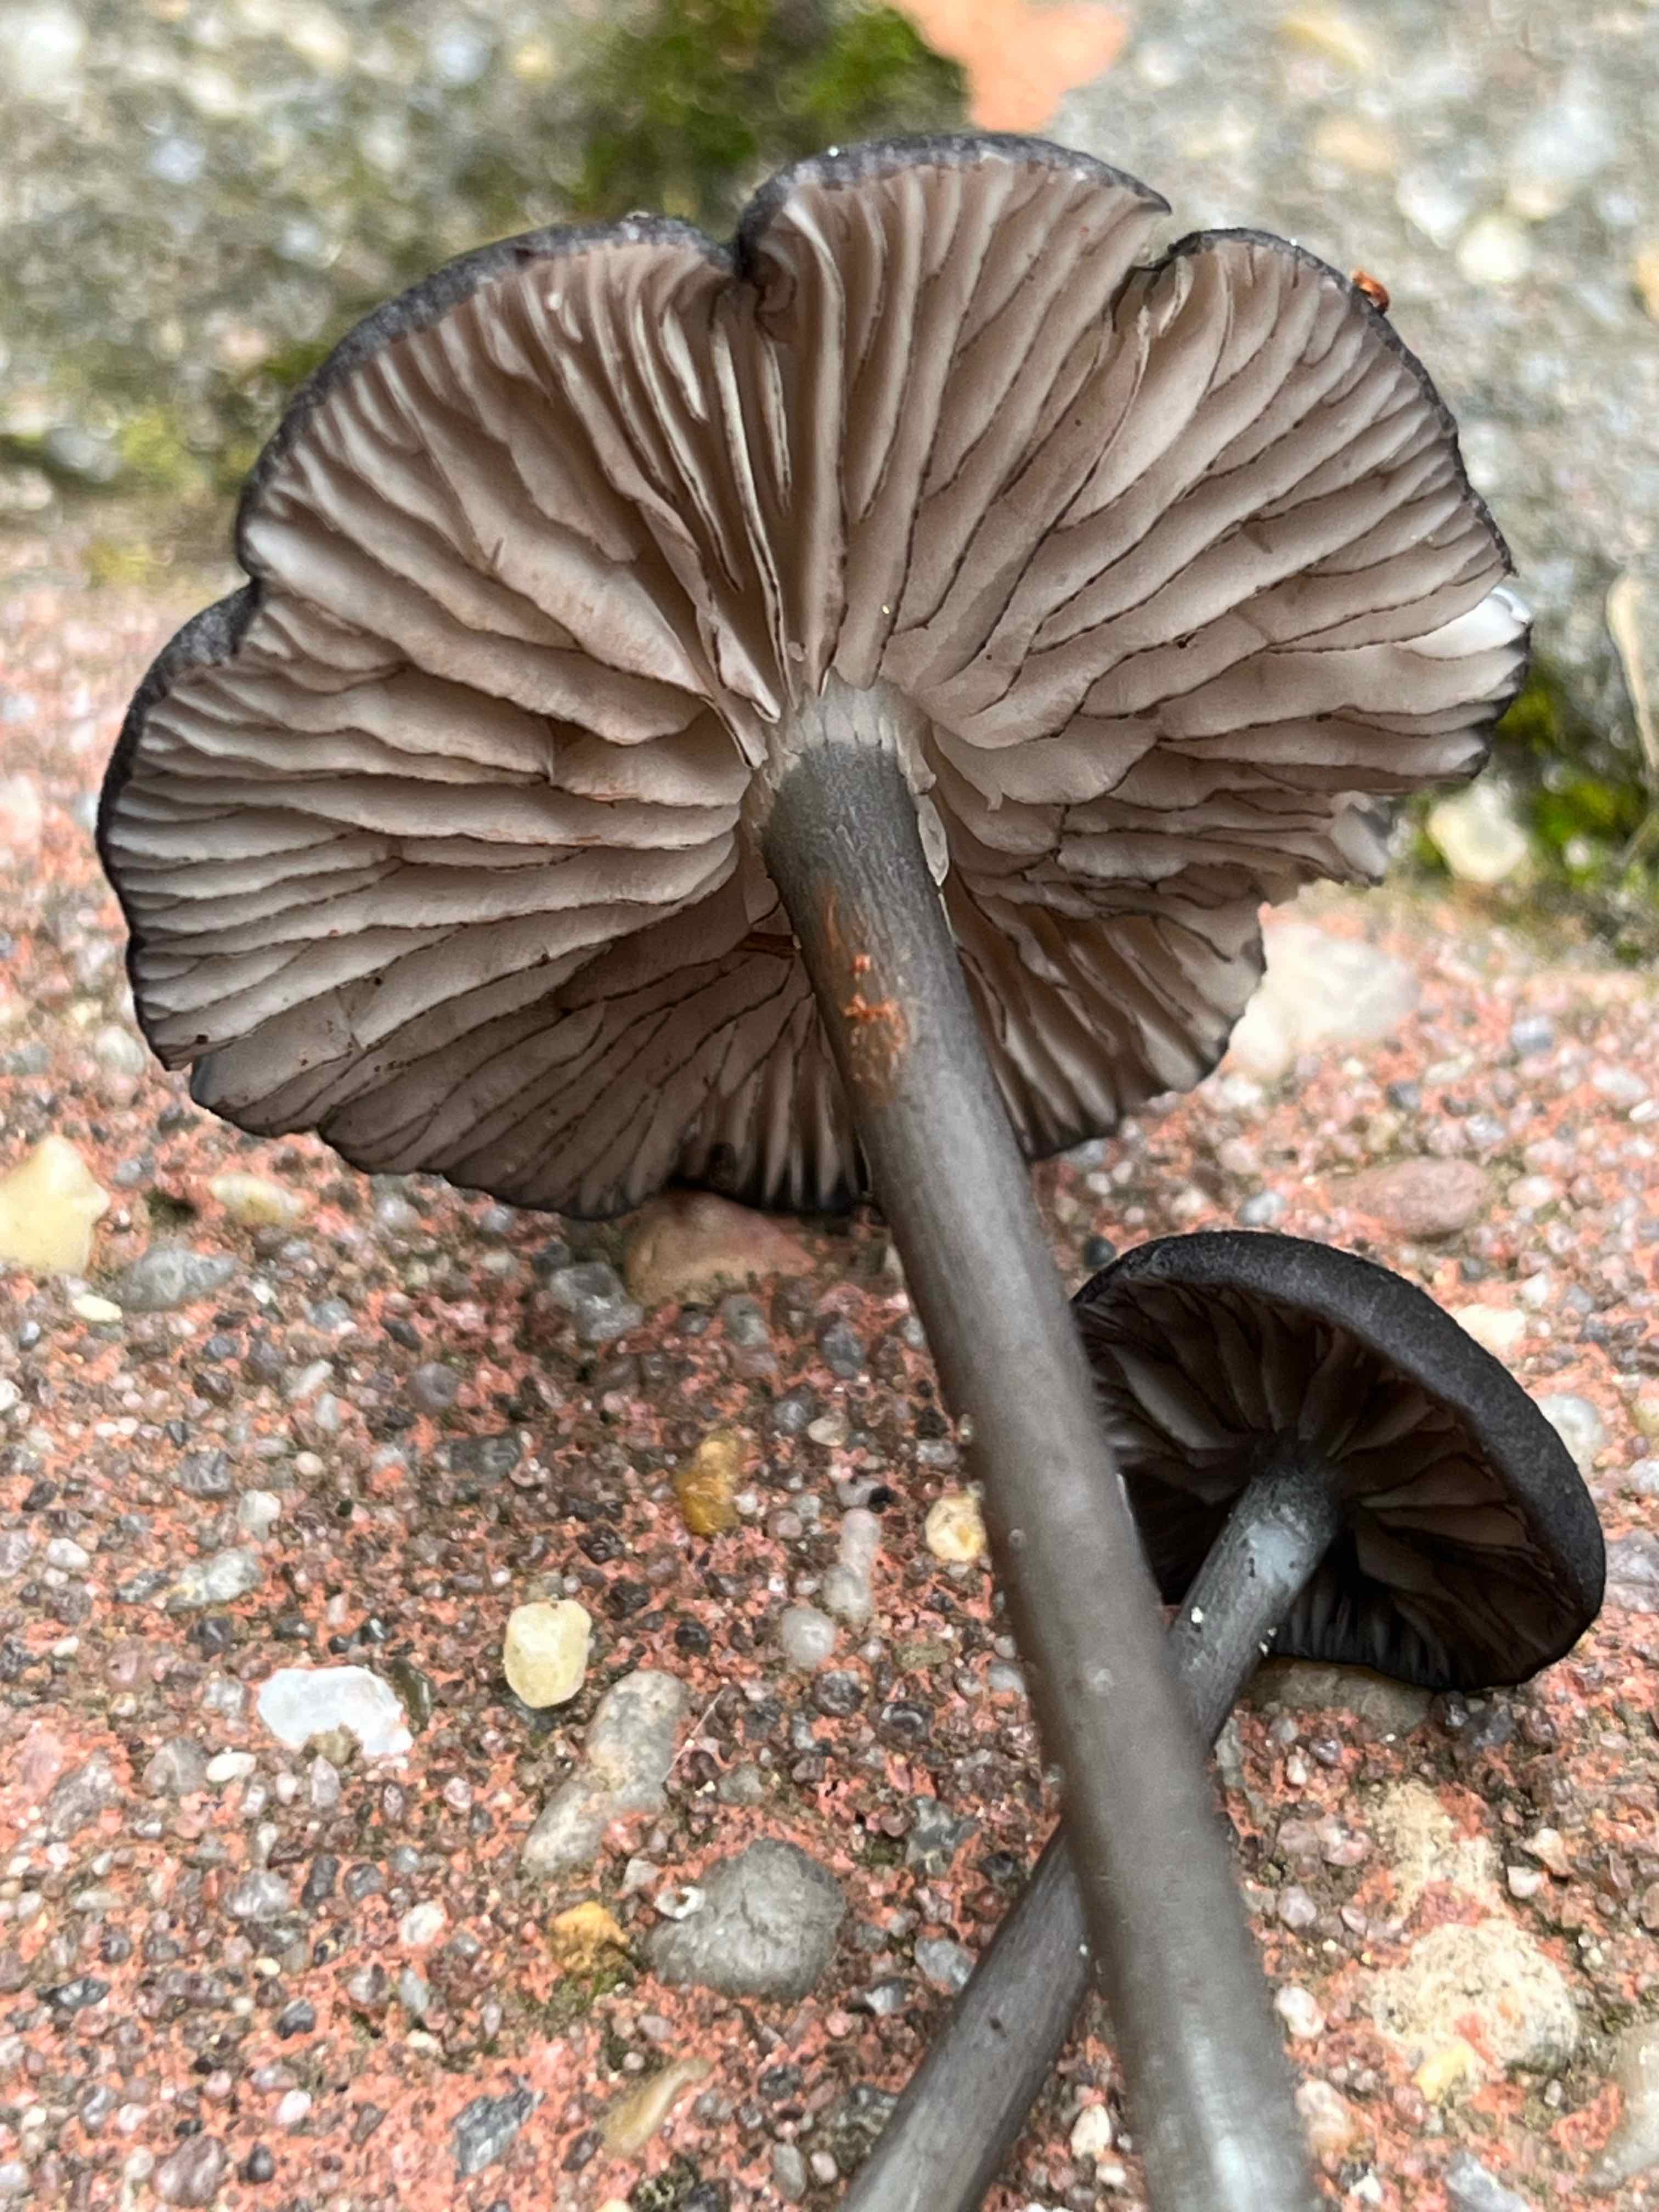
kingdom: Fungi
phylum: Basidiomycota
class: Agaricomycetes
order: Agaricales
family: Entolomataceae
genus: Entoloma
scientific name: Entoloma
